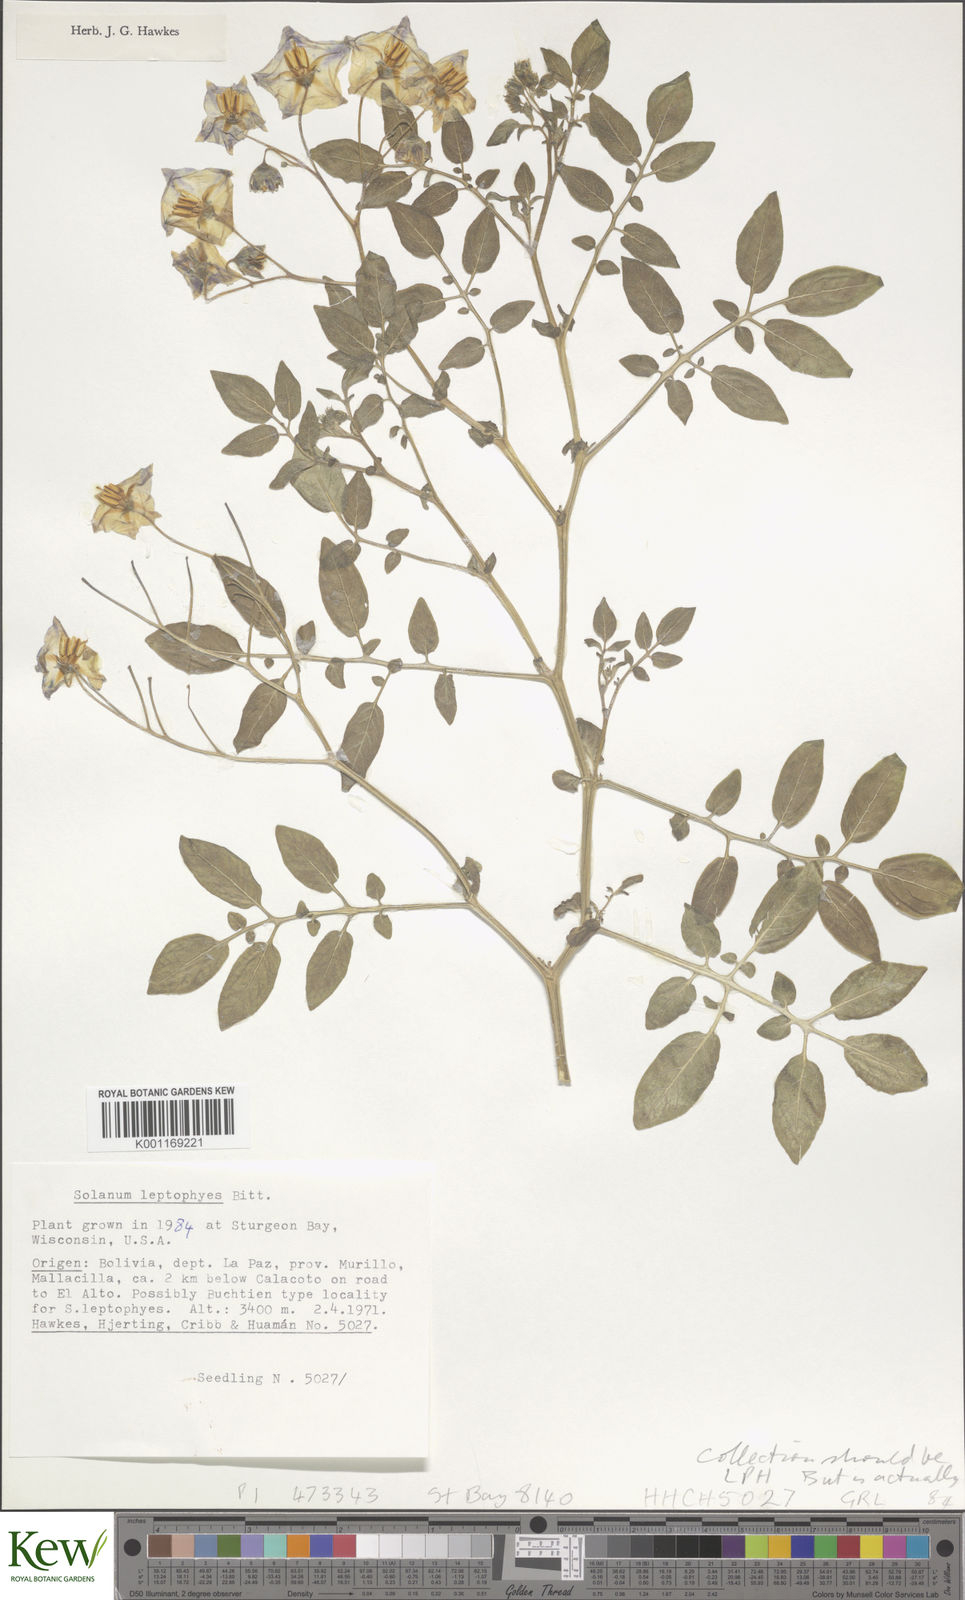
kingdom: Plantae
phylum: Tracheophyta
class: Magnoliopsida
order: Solanales
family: Solanaceae
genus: Solanum
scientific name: Solanum brevicaule
